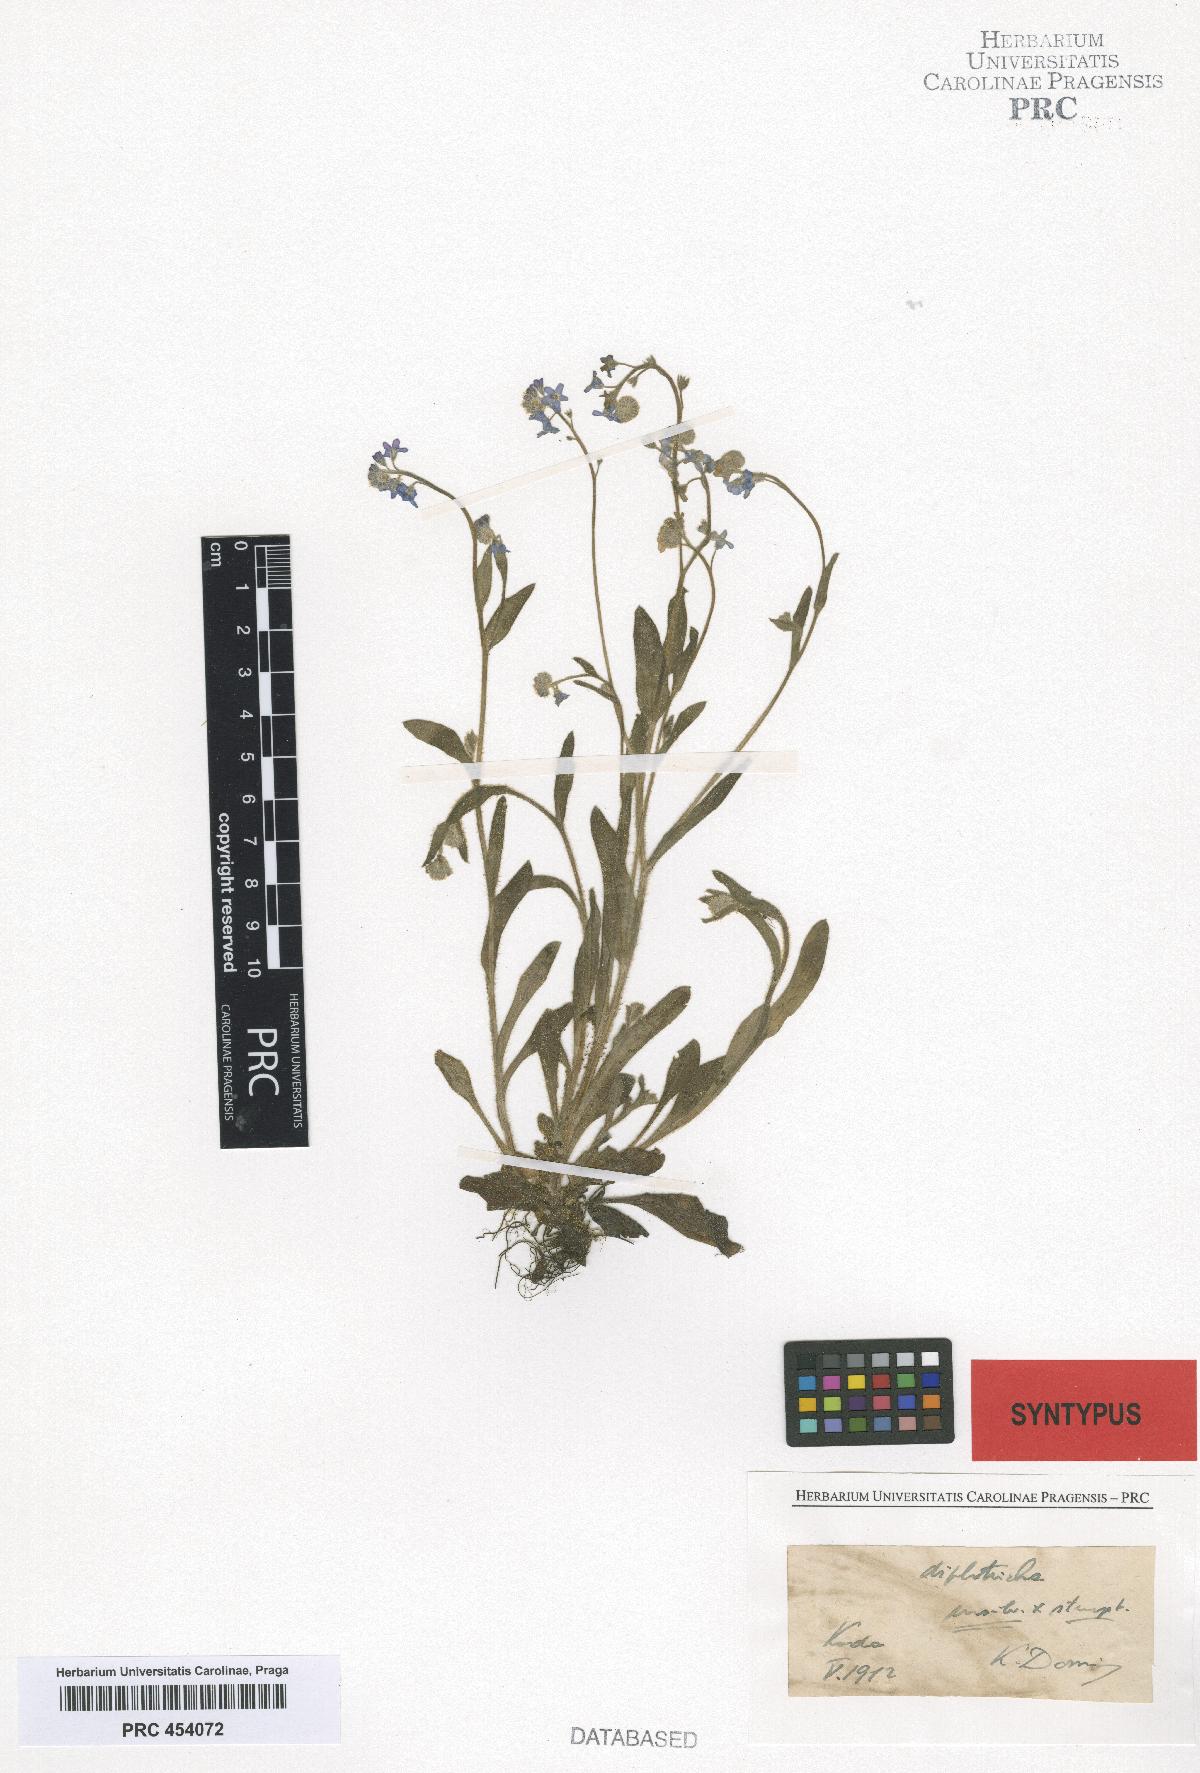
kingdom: Plantae
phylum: Tracheophyta
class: Magnoliopsida
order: Boraginales
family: Boraginaceae
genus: Myosotis
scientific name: Myosotis sylvatica
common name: Wood forget-me-not
